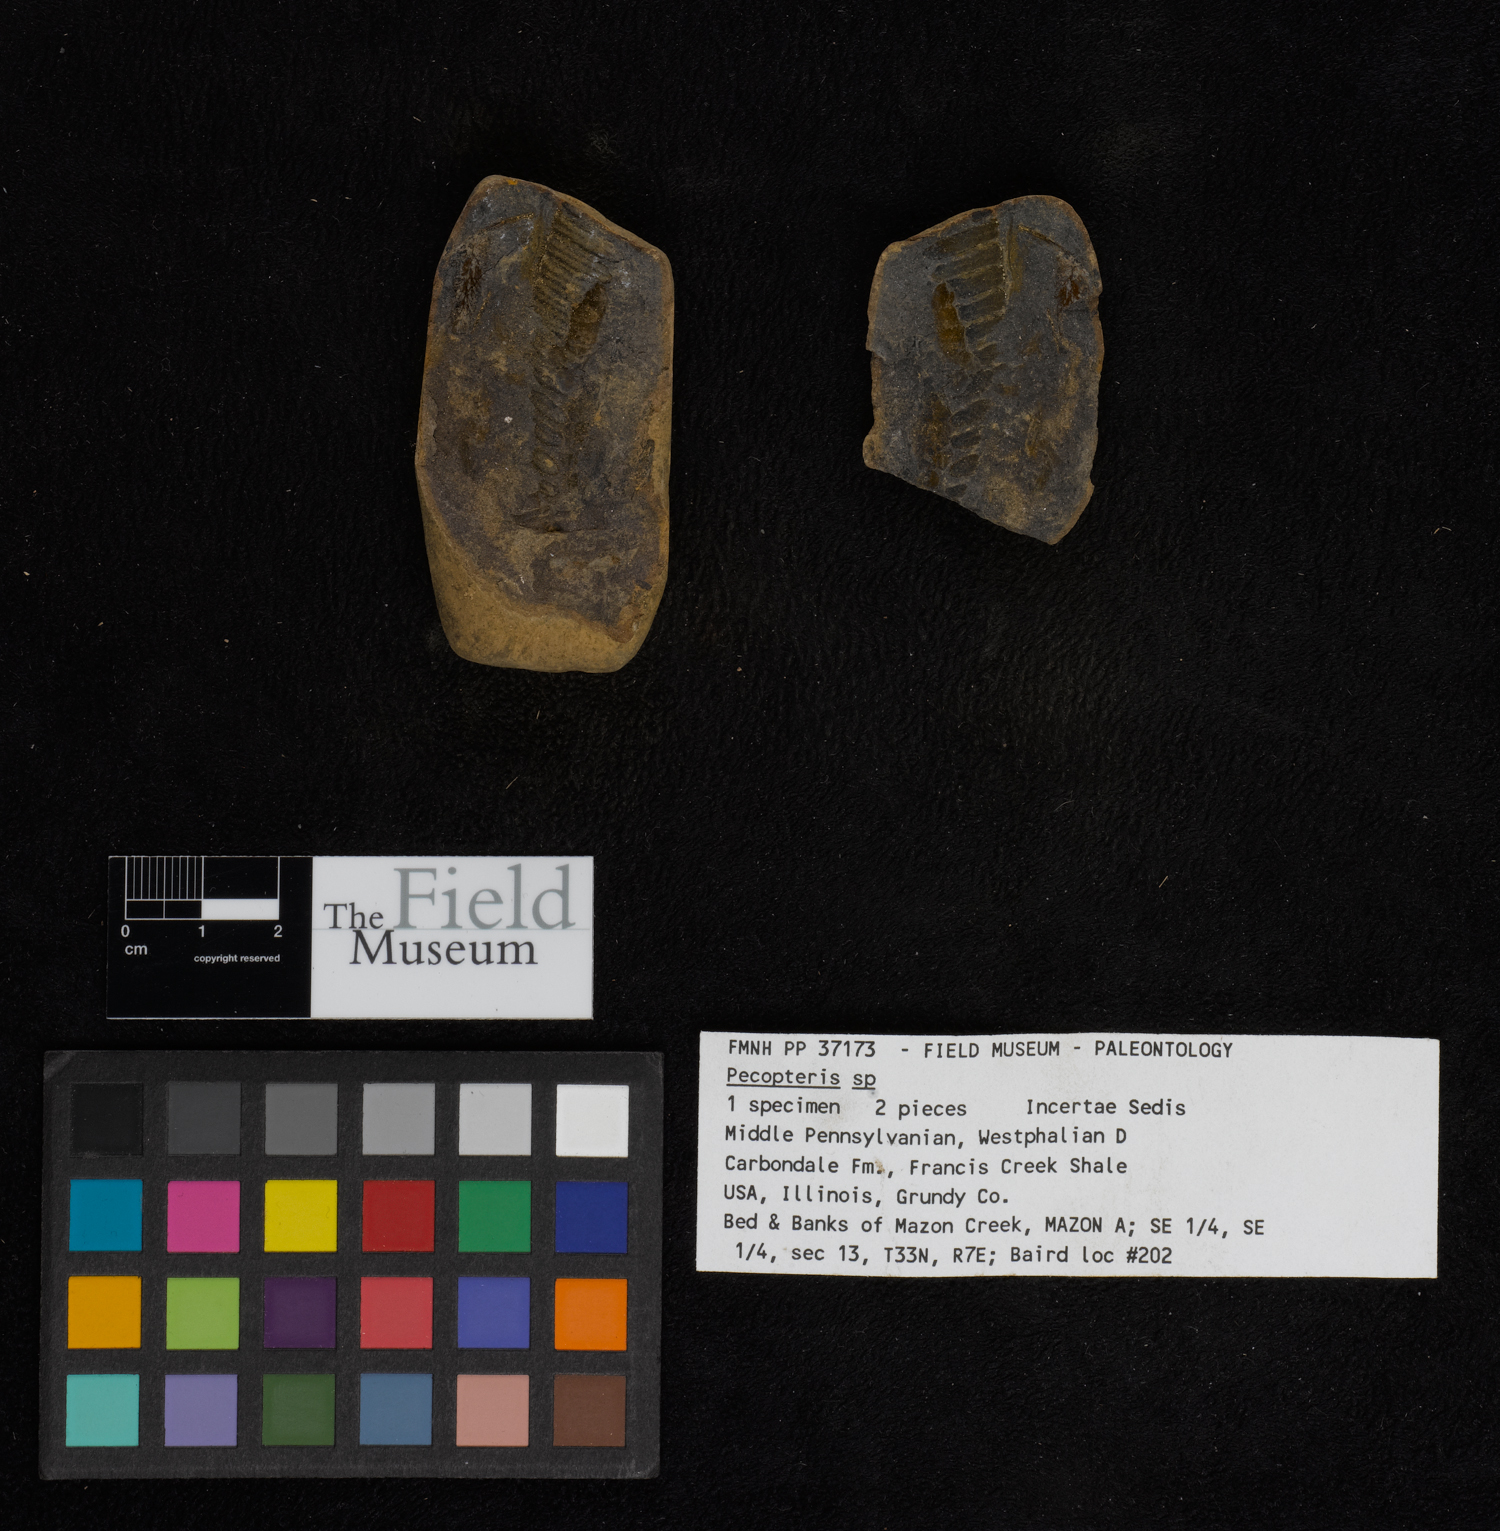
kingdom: Plantae
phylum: Tracheophyta
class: Polypodiopsida
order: Marattiales
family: Asterothecaceae
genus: Pecopteris
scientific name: Pecopteris
